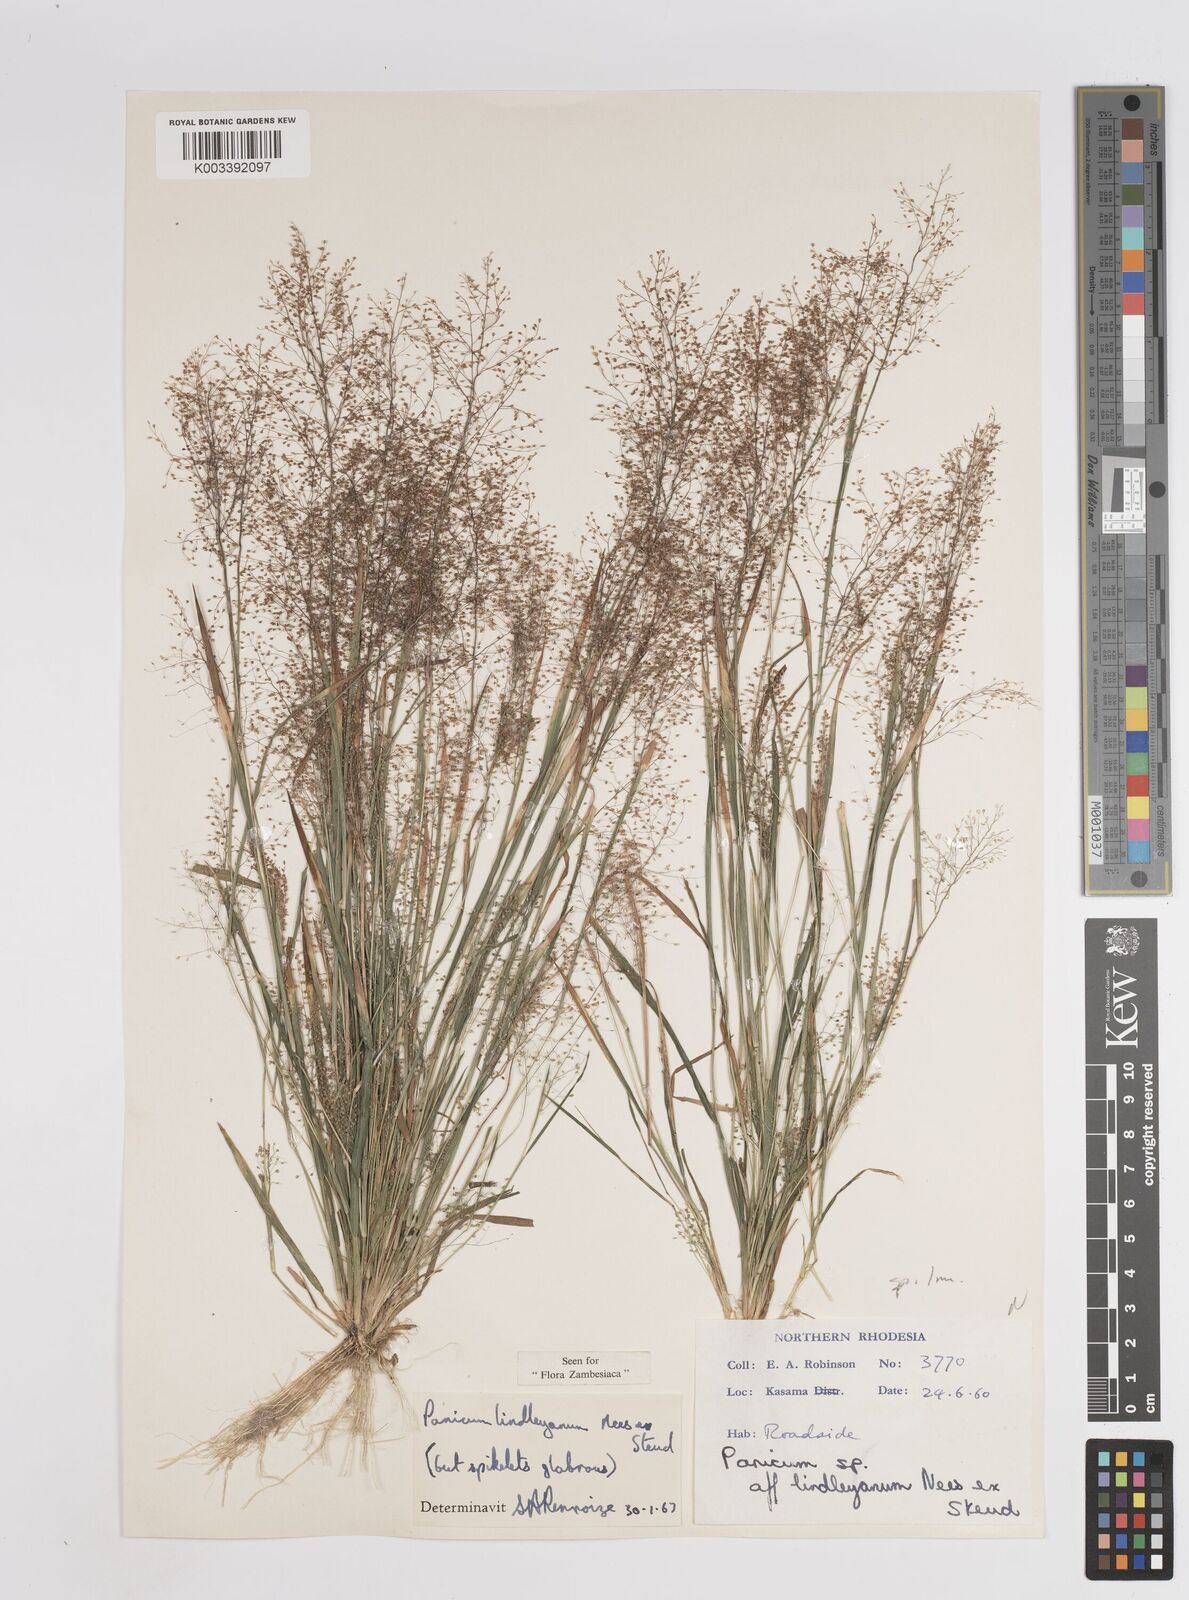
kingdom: Plantae
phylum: Tracheophyta
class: Liliopsida
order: Poales
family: Poaceae
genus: Trichanthecium
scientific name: Trichanthecium tenellum
